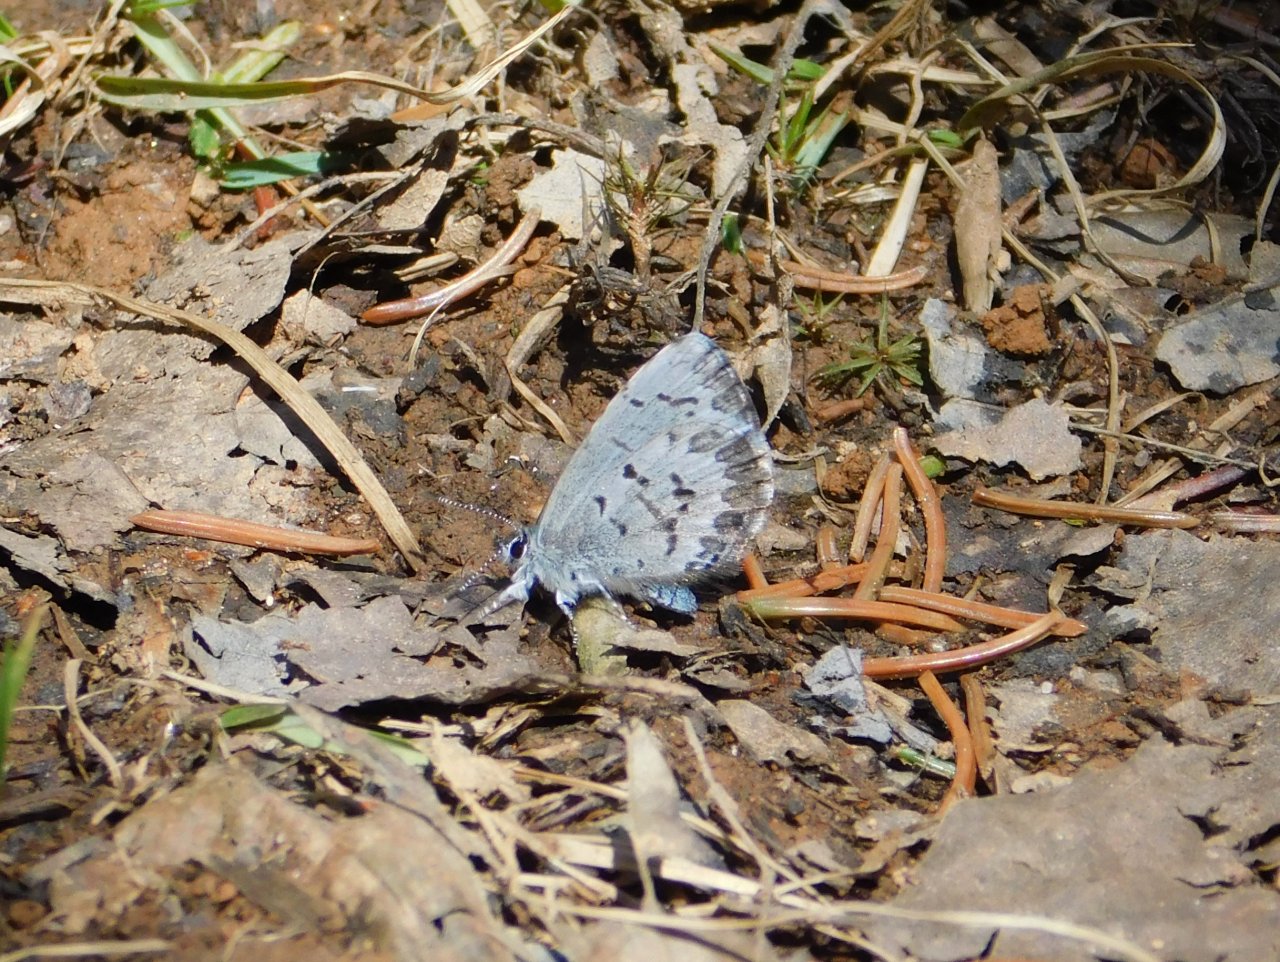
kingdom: Animalia
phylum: Arthropoda
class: Insecta
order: Lepidoptera
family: Lycaenidae
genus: Celastrina
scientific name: Celastrina lucia
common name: Northern Spring Azure
